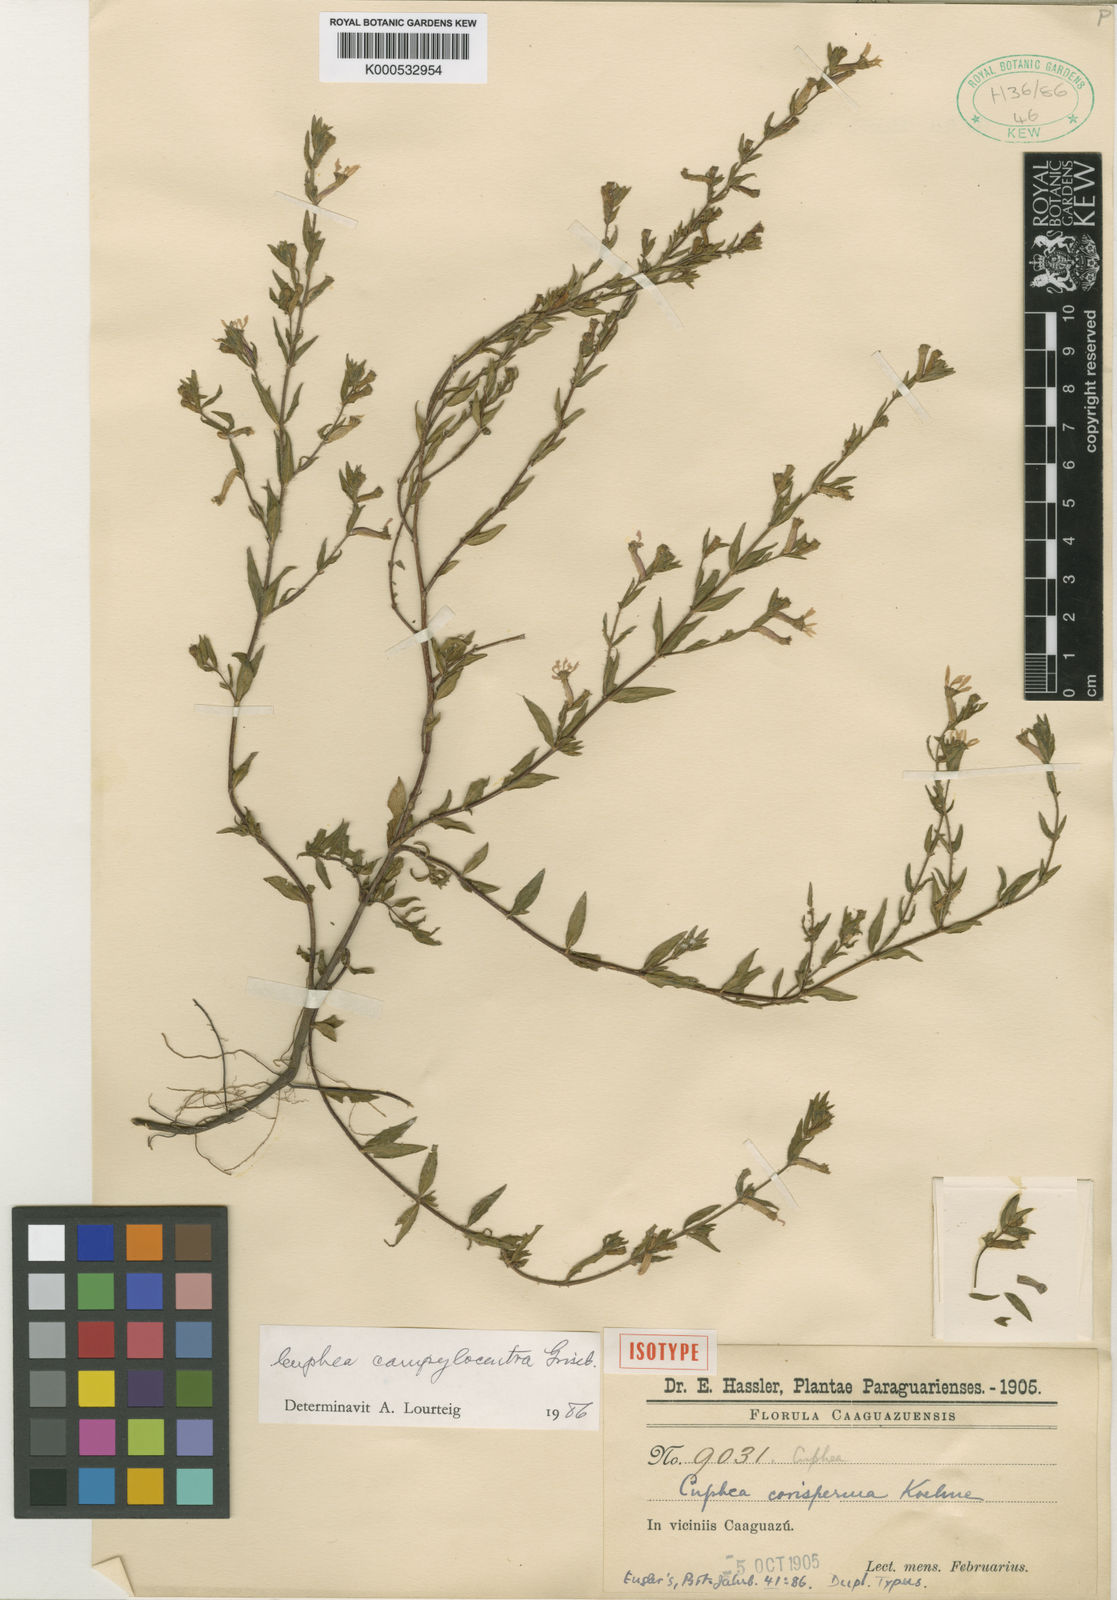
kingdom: Plantae
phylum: Tracheophyta
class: Magnoliopsida
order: Myrtales
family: Lythraceae
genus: Cuphea
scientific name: Cuphea corisperma
